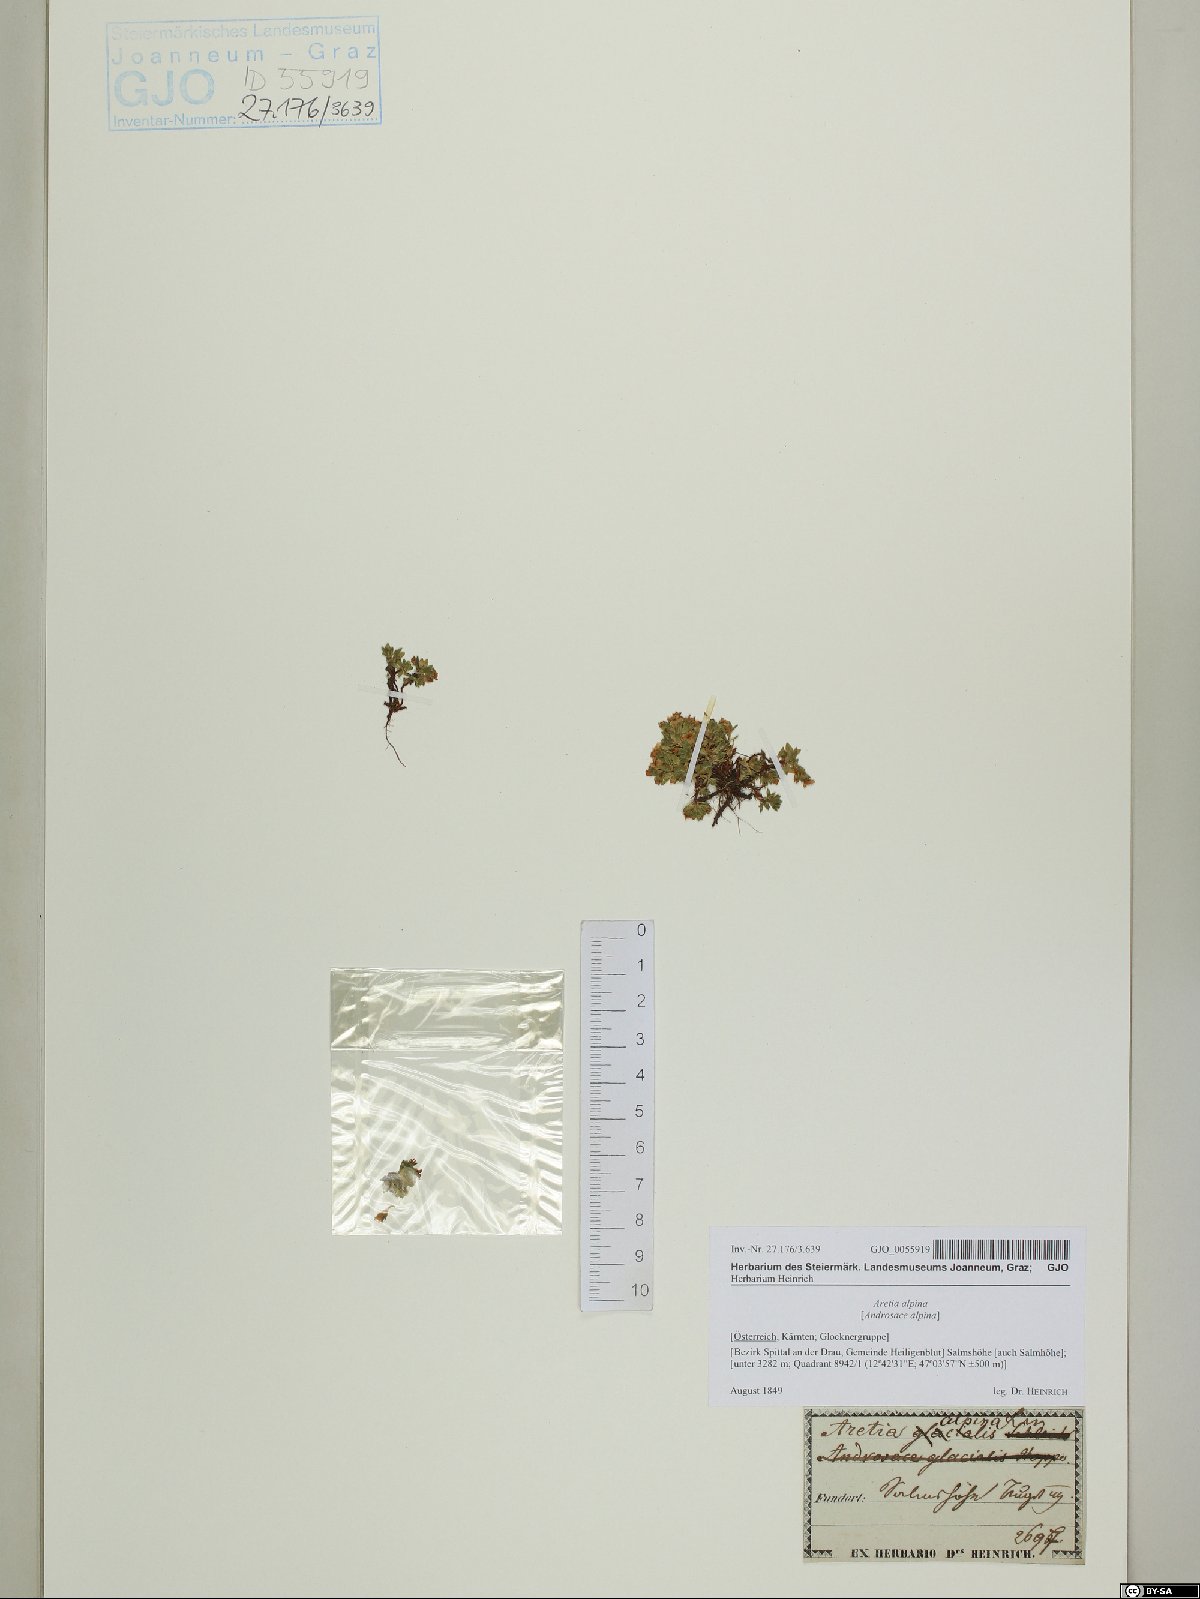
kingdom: Plantae
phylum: Tracheophyta
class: Magnoliopsida
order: Ericales
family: Primulaceae
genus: Androsace
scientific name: Androsace alpina
